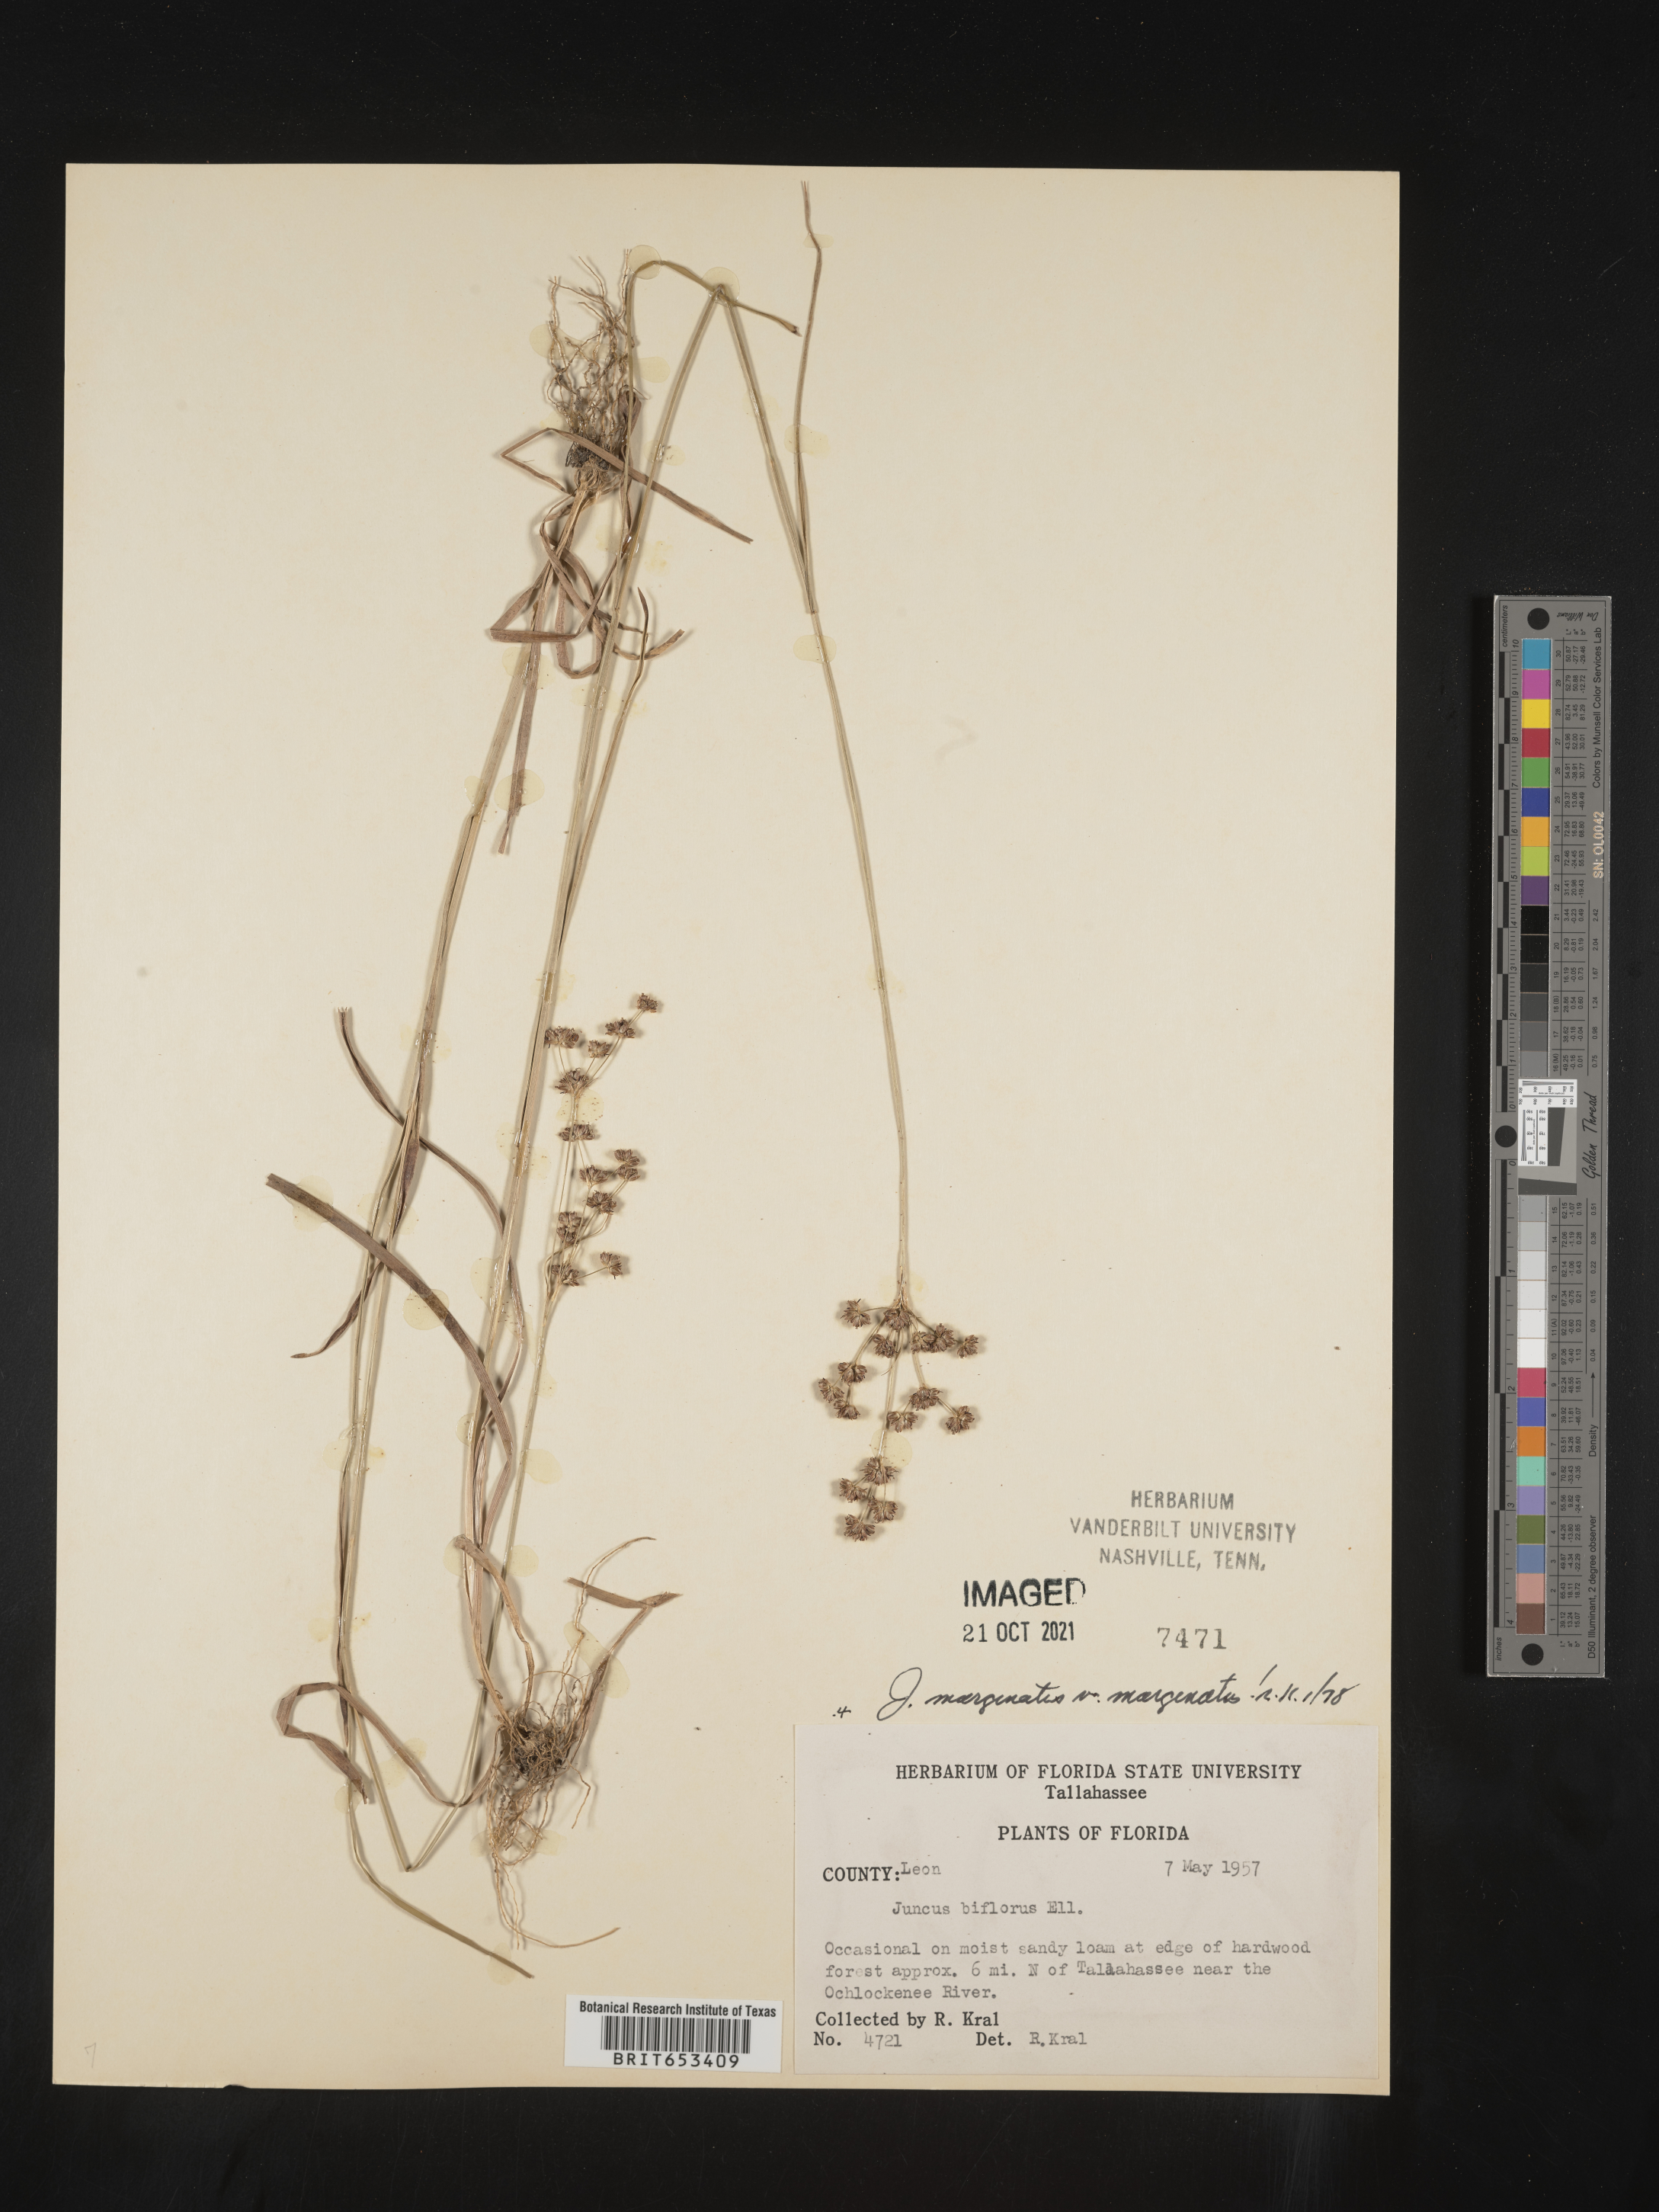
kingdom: Plantae
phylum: Tracheophyta
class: Liliopsida
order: Poales
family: Juncaceae
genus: Juncus
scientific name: Juncus marginatus
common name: Grass-leaf rush
